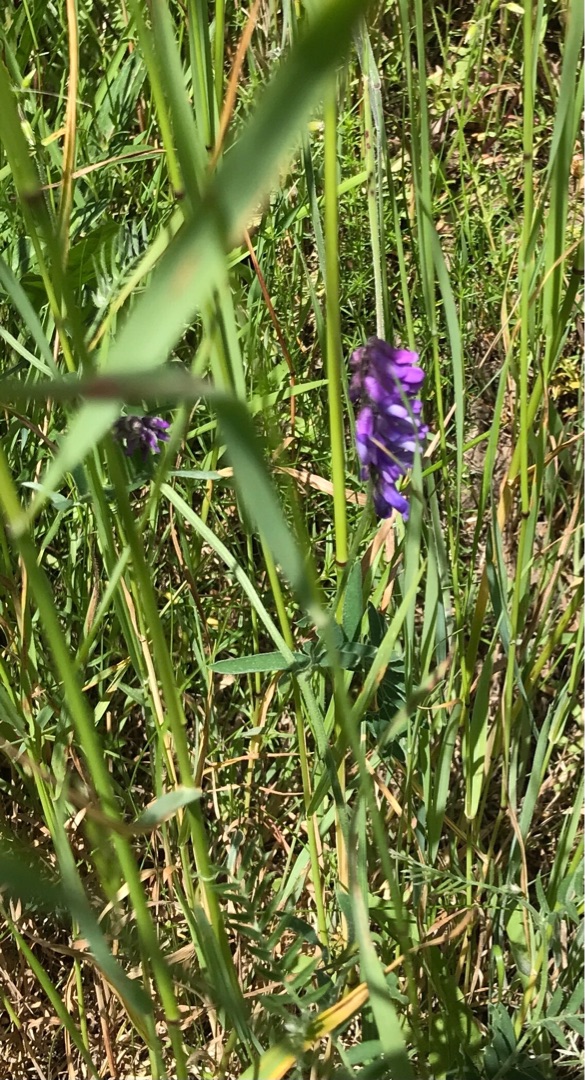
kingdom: Plantae
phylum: Tracheophyta
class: Magnoliopsida
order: Fabales
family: Fabaceae
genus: Vicia
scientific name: Vicia cracca
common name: Muse-vikke
